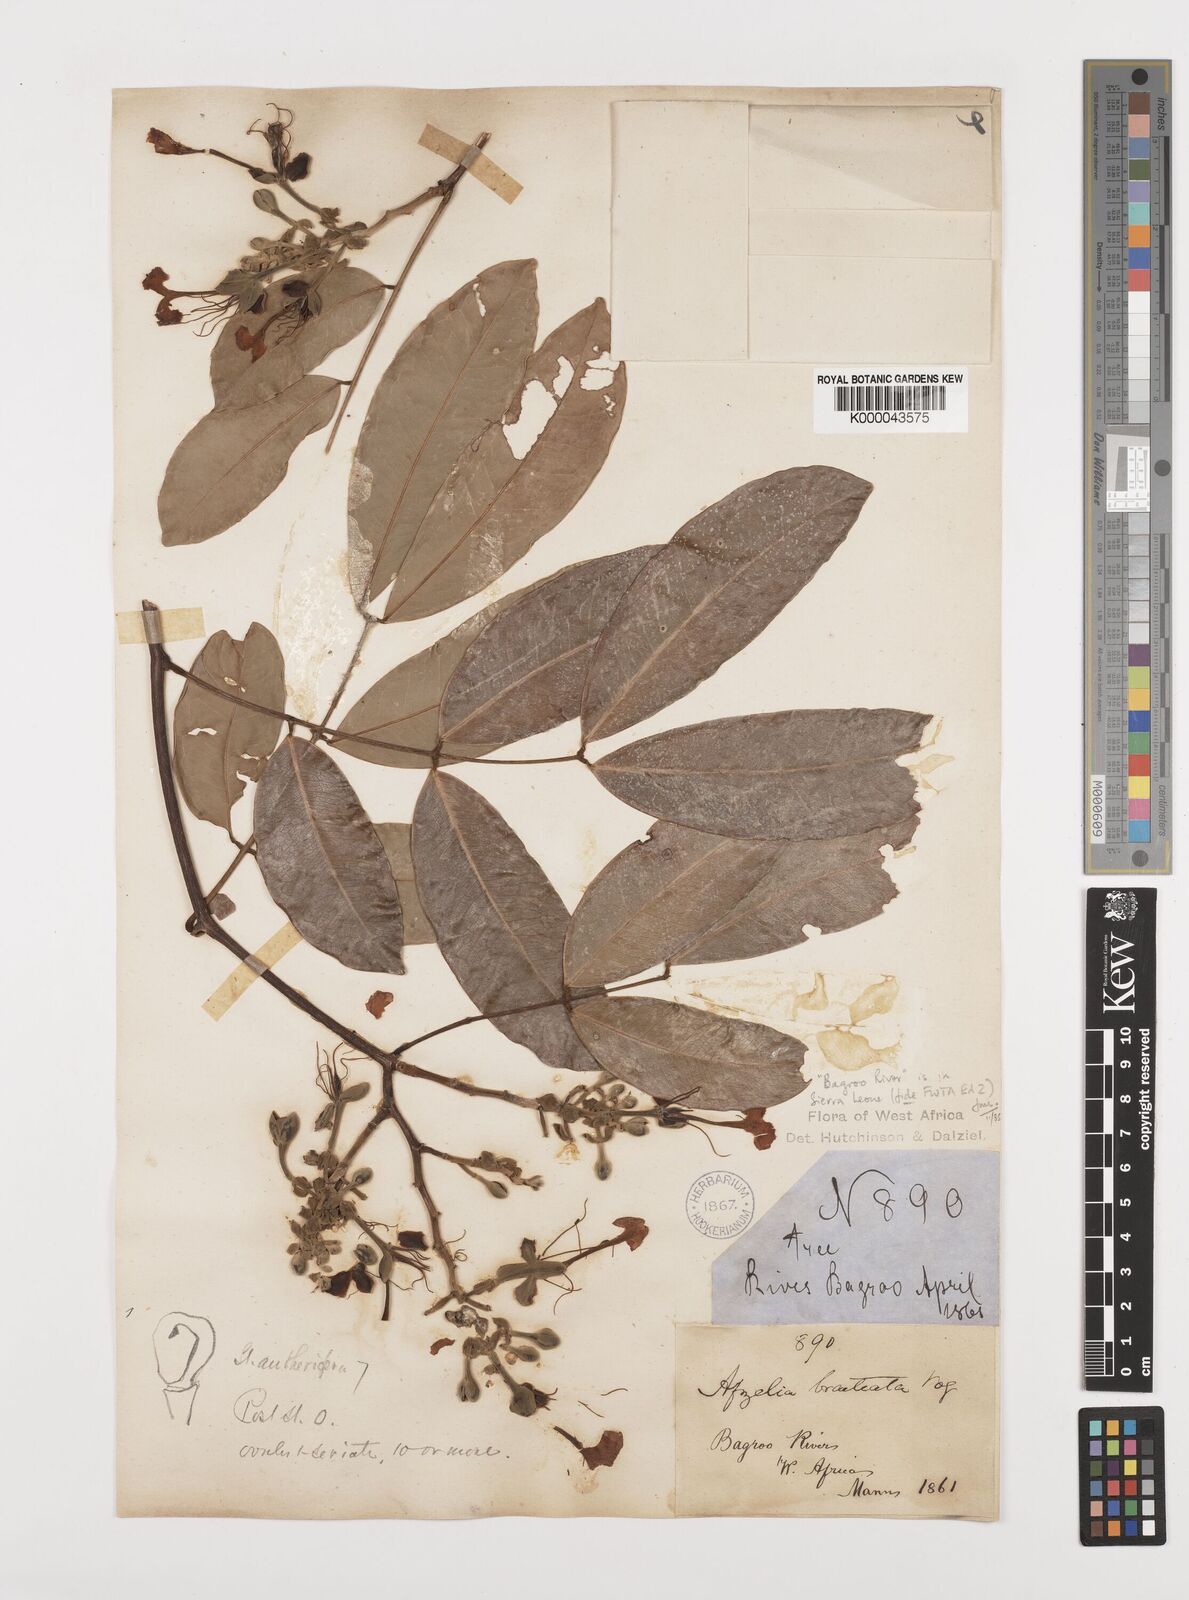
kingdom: Plantae
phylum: Tracheophyta
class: Magnoliopsida
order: Fabales
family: Fabaceae
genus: Afzelia
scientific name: Afzelia
